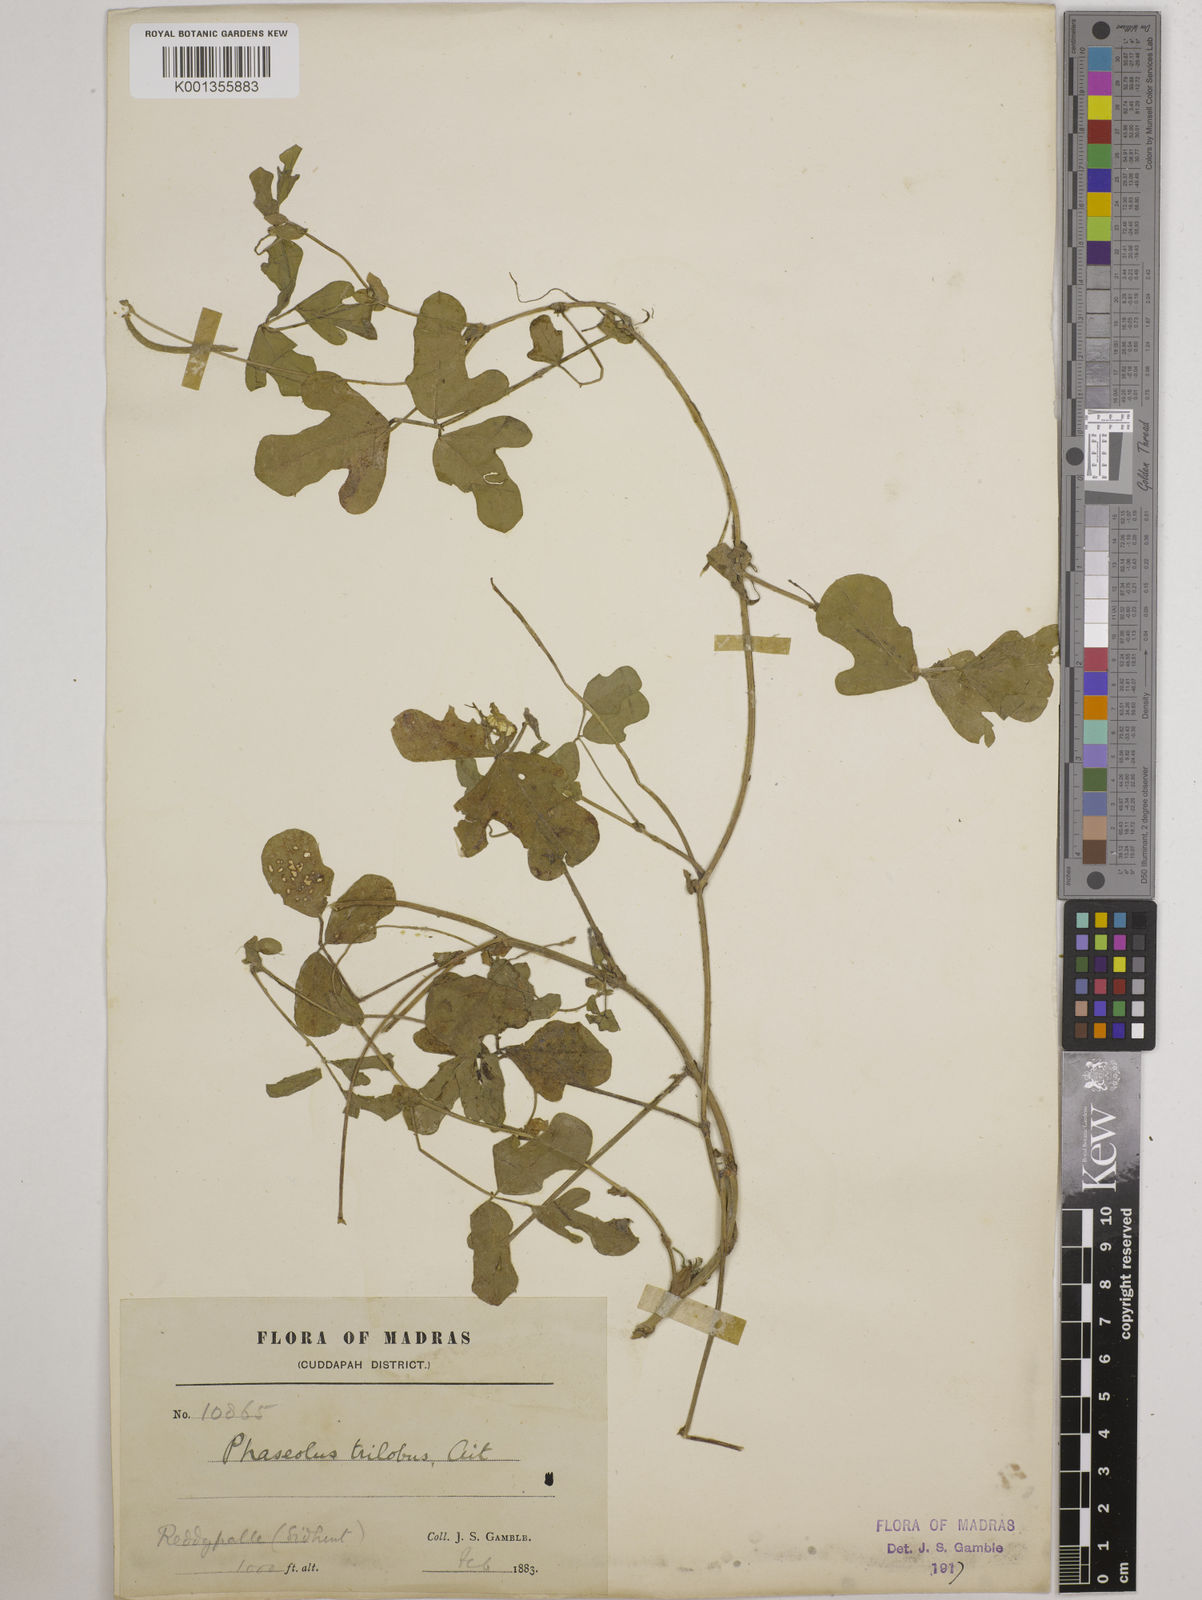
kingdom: Plantae
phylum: Tracheophyta
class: Magnoliopsida
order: Fabales
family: Fabaceae
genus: Vigna
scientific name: Vigna trilobata
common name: Jungli-bean
